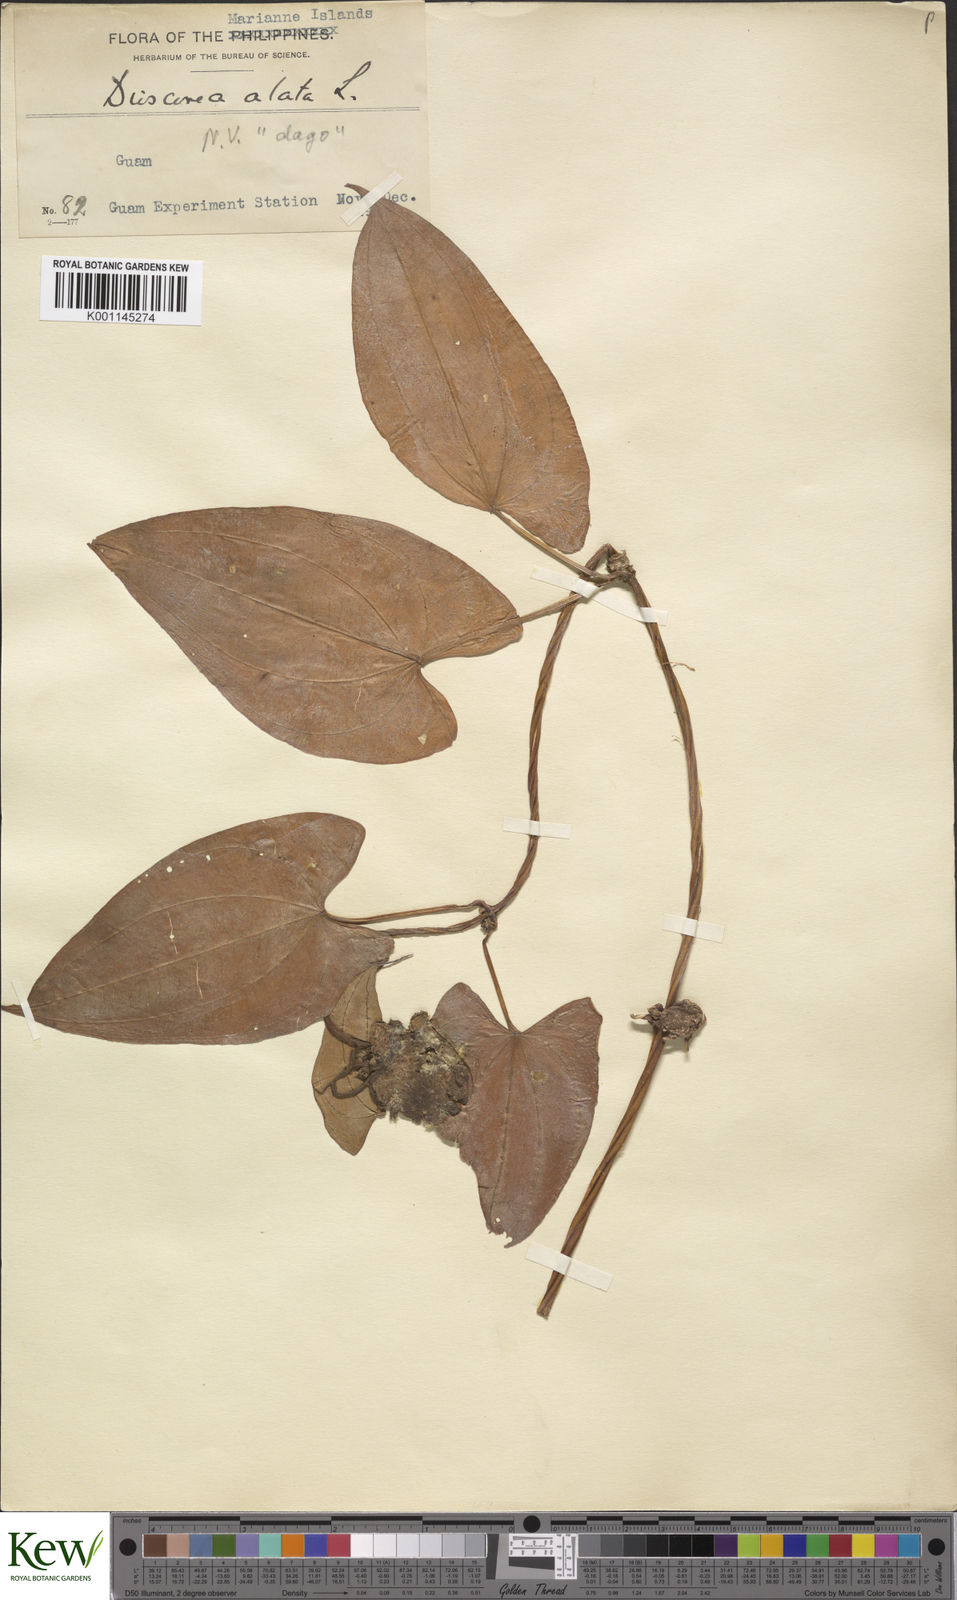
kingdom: Plantae
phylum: Tracheophyta
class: Liliopsida
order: Dioscoreales
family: Dioscoreaceae
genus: Dioscorea
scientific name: Dioscorea alata
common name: Water yam
